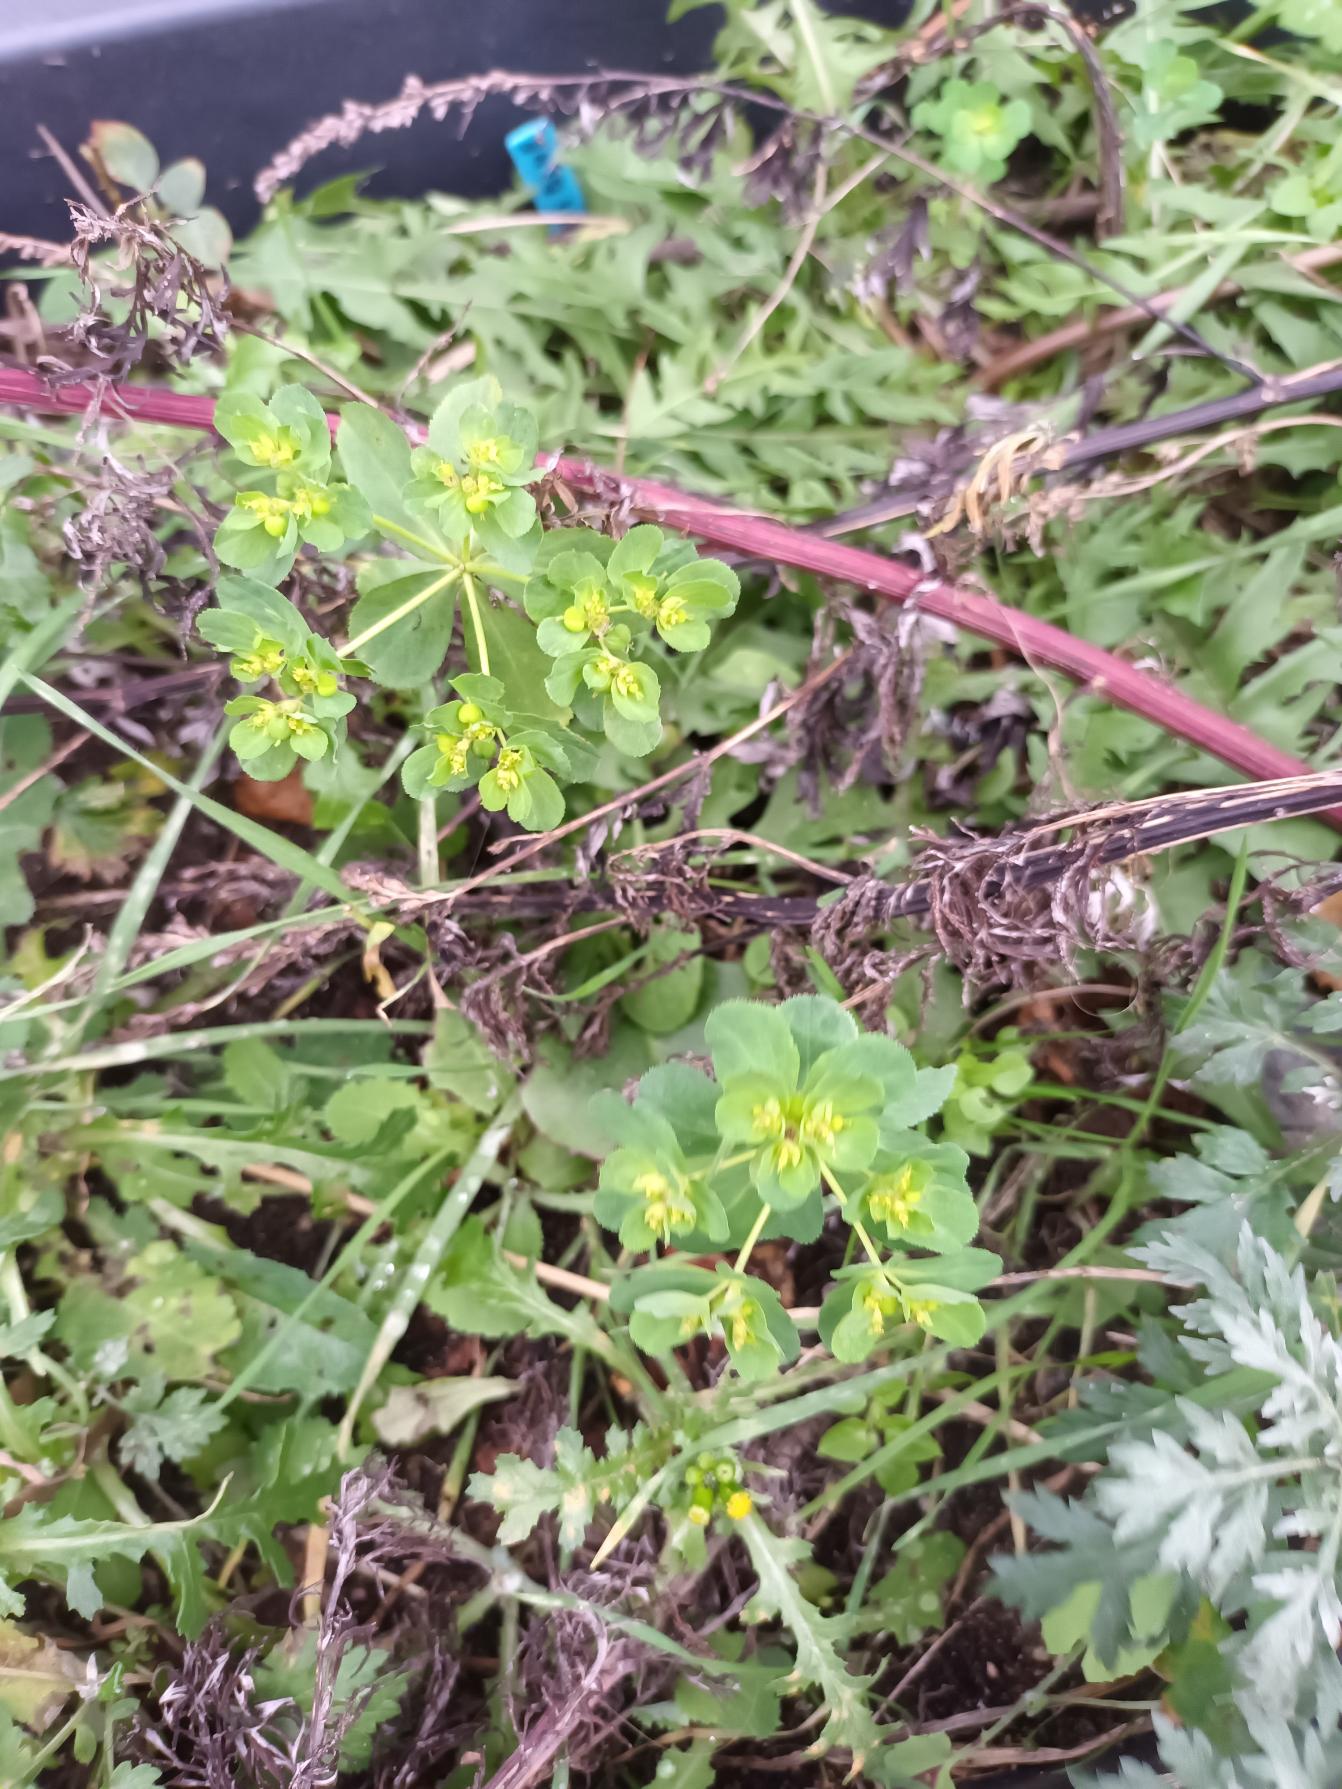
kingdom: Plantae
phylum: Tracheophyta
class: Magnoliopsida
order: Malpighiales
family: Euphorbiaceae
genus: Euphorbia
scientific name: Euphorbia helioscopia
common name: Skærm-vortemælk
